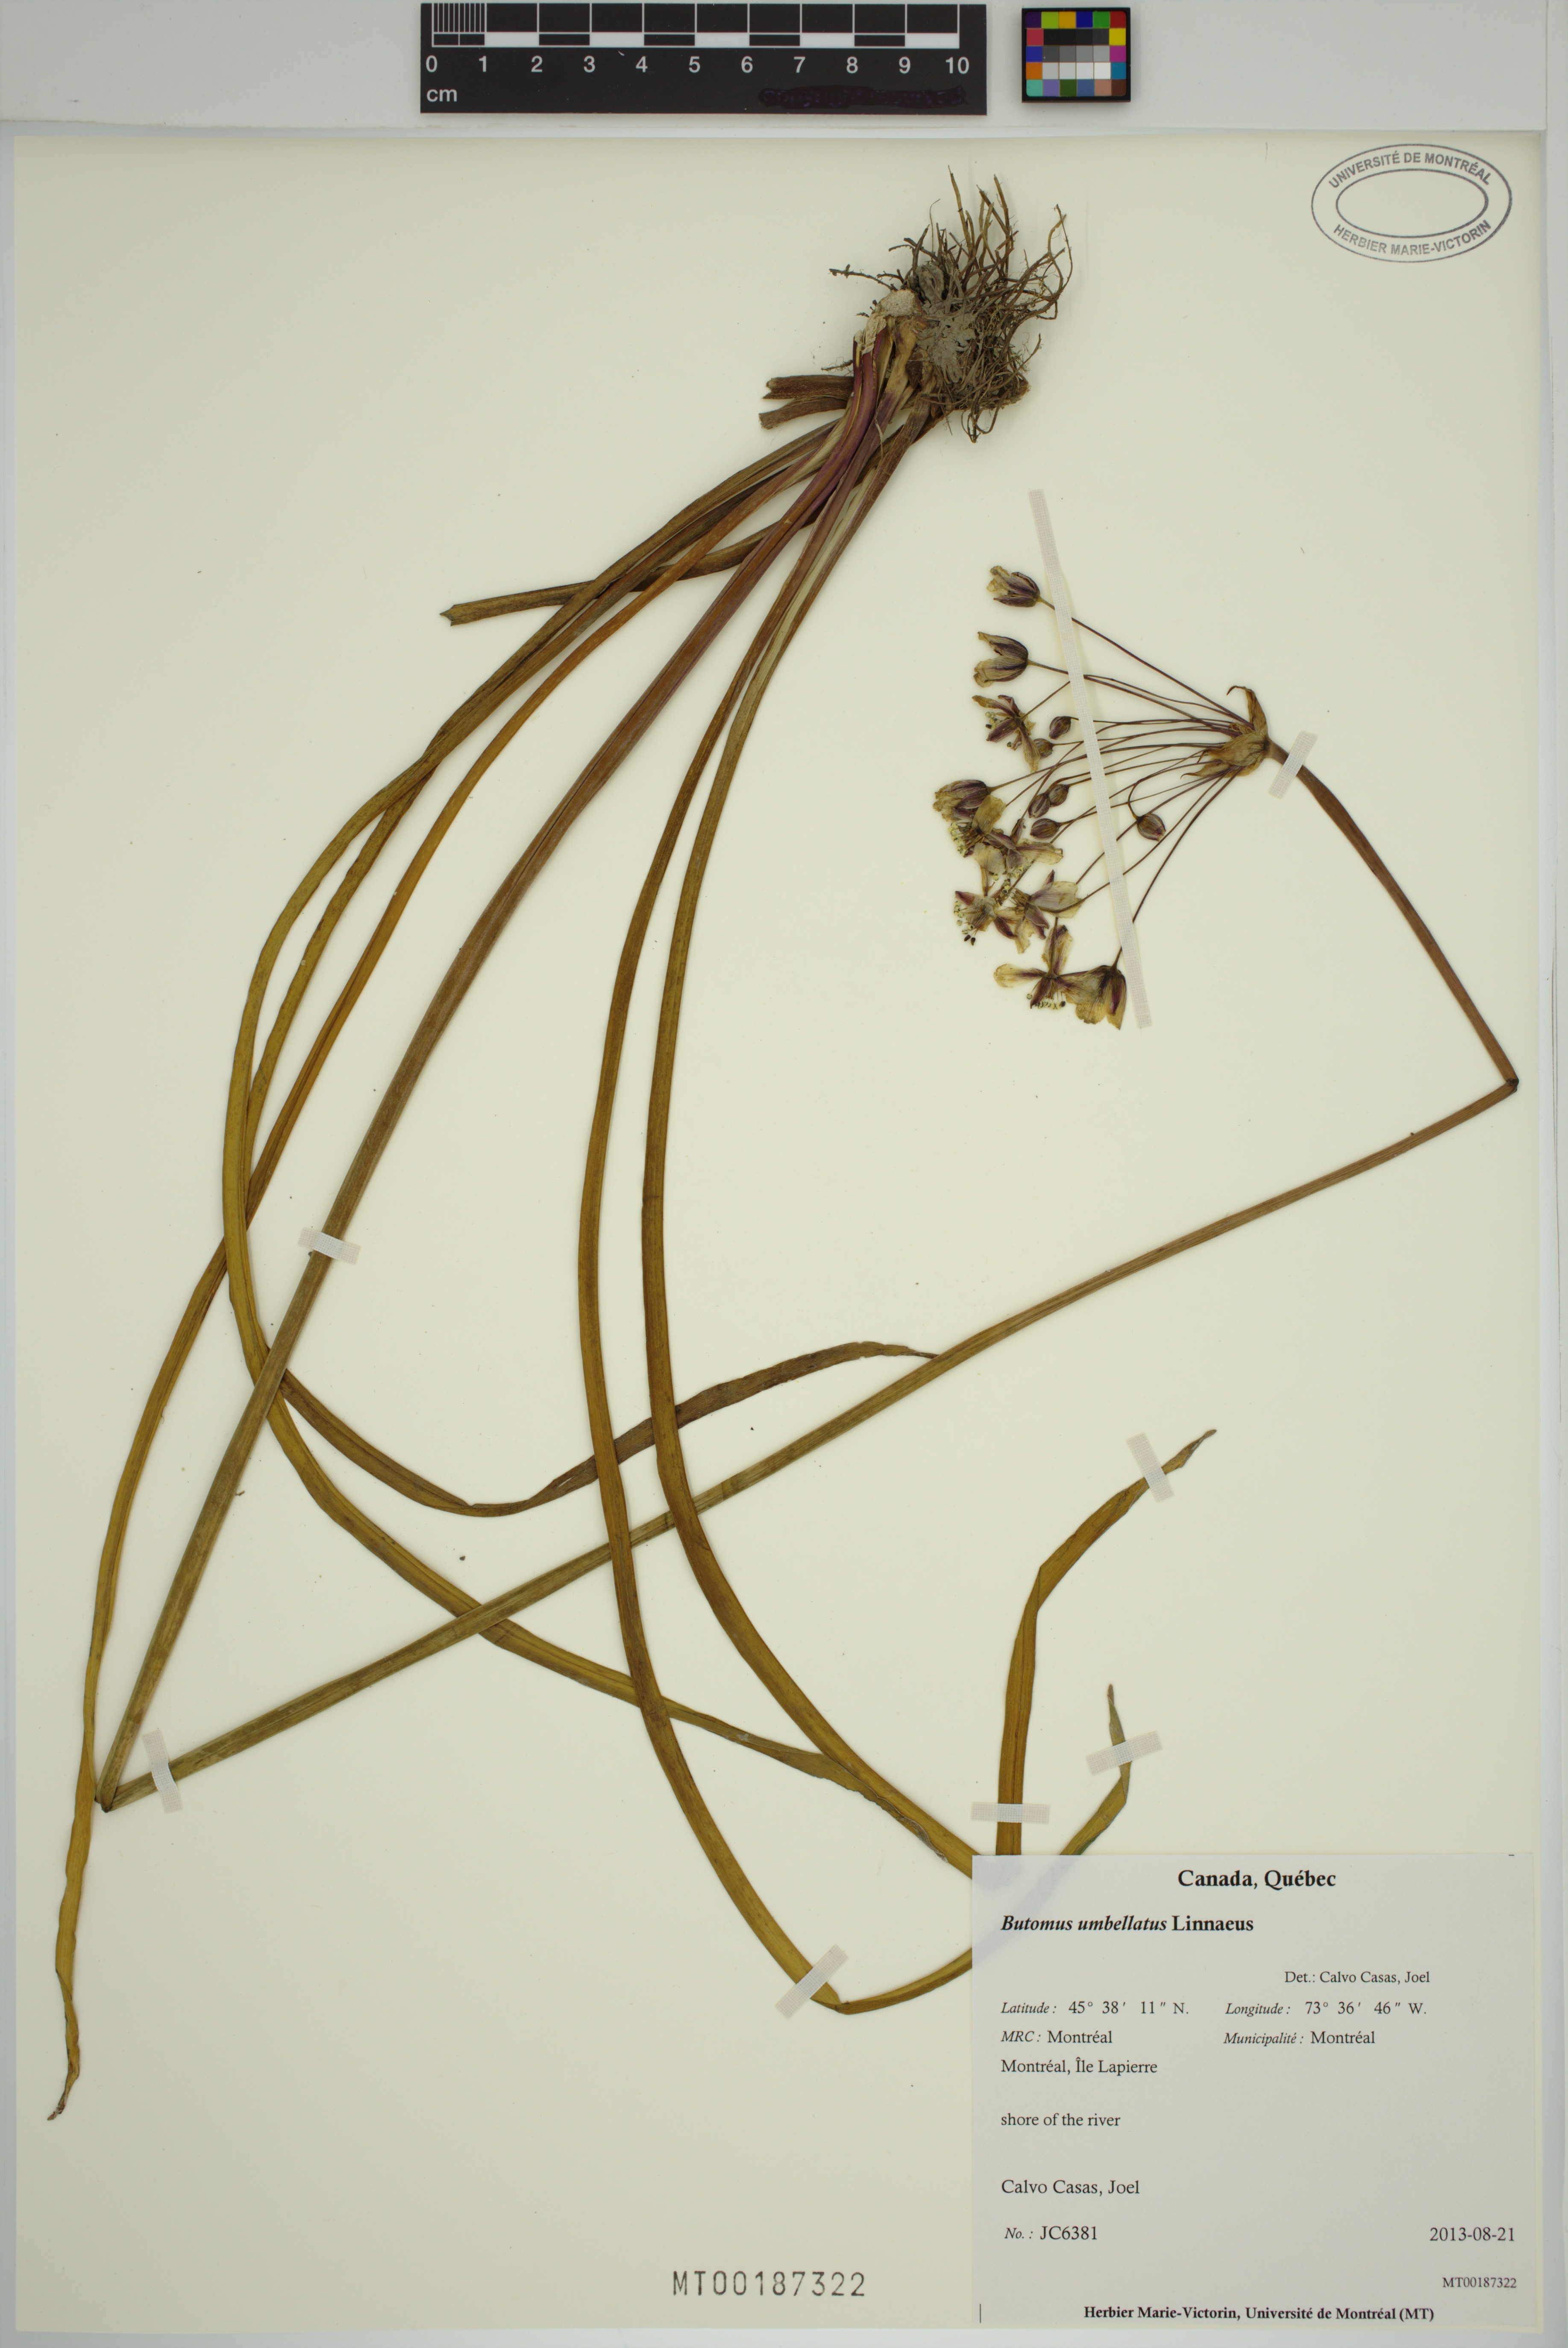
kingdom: Plantae
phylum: Tracheophyta
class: Liliopsida
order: Alismatales
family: Butomaceae
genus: Butomus
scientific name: Butomus umbellatus
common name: Flowering-rush
